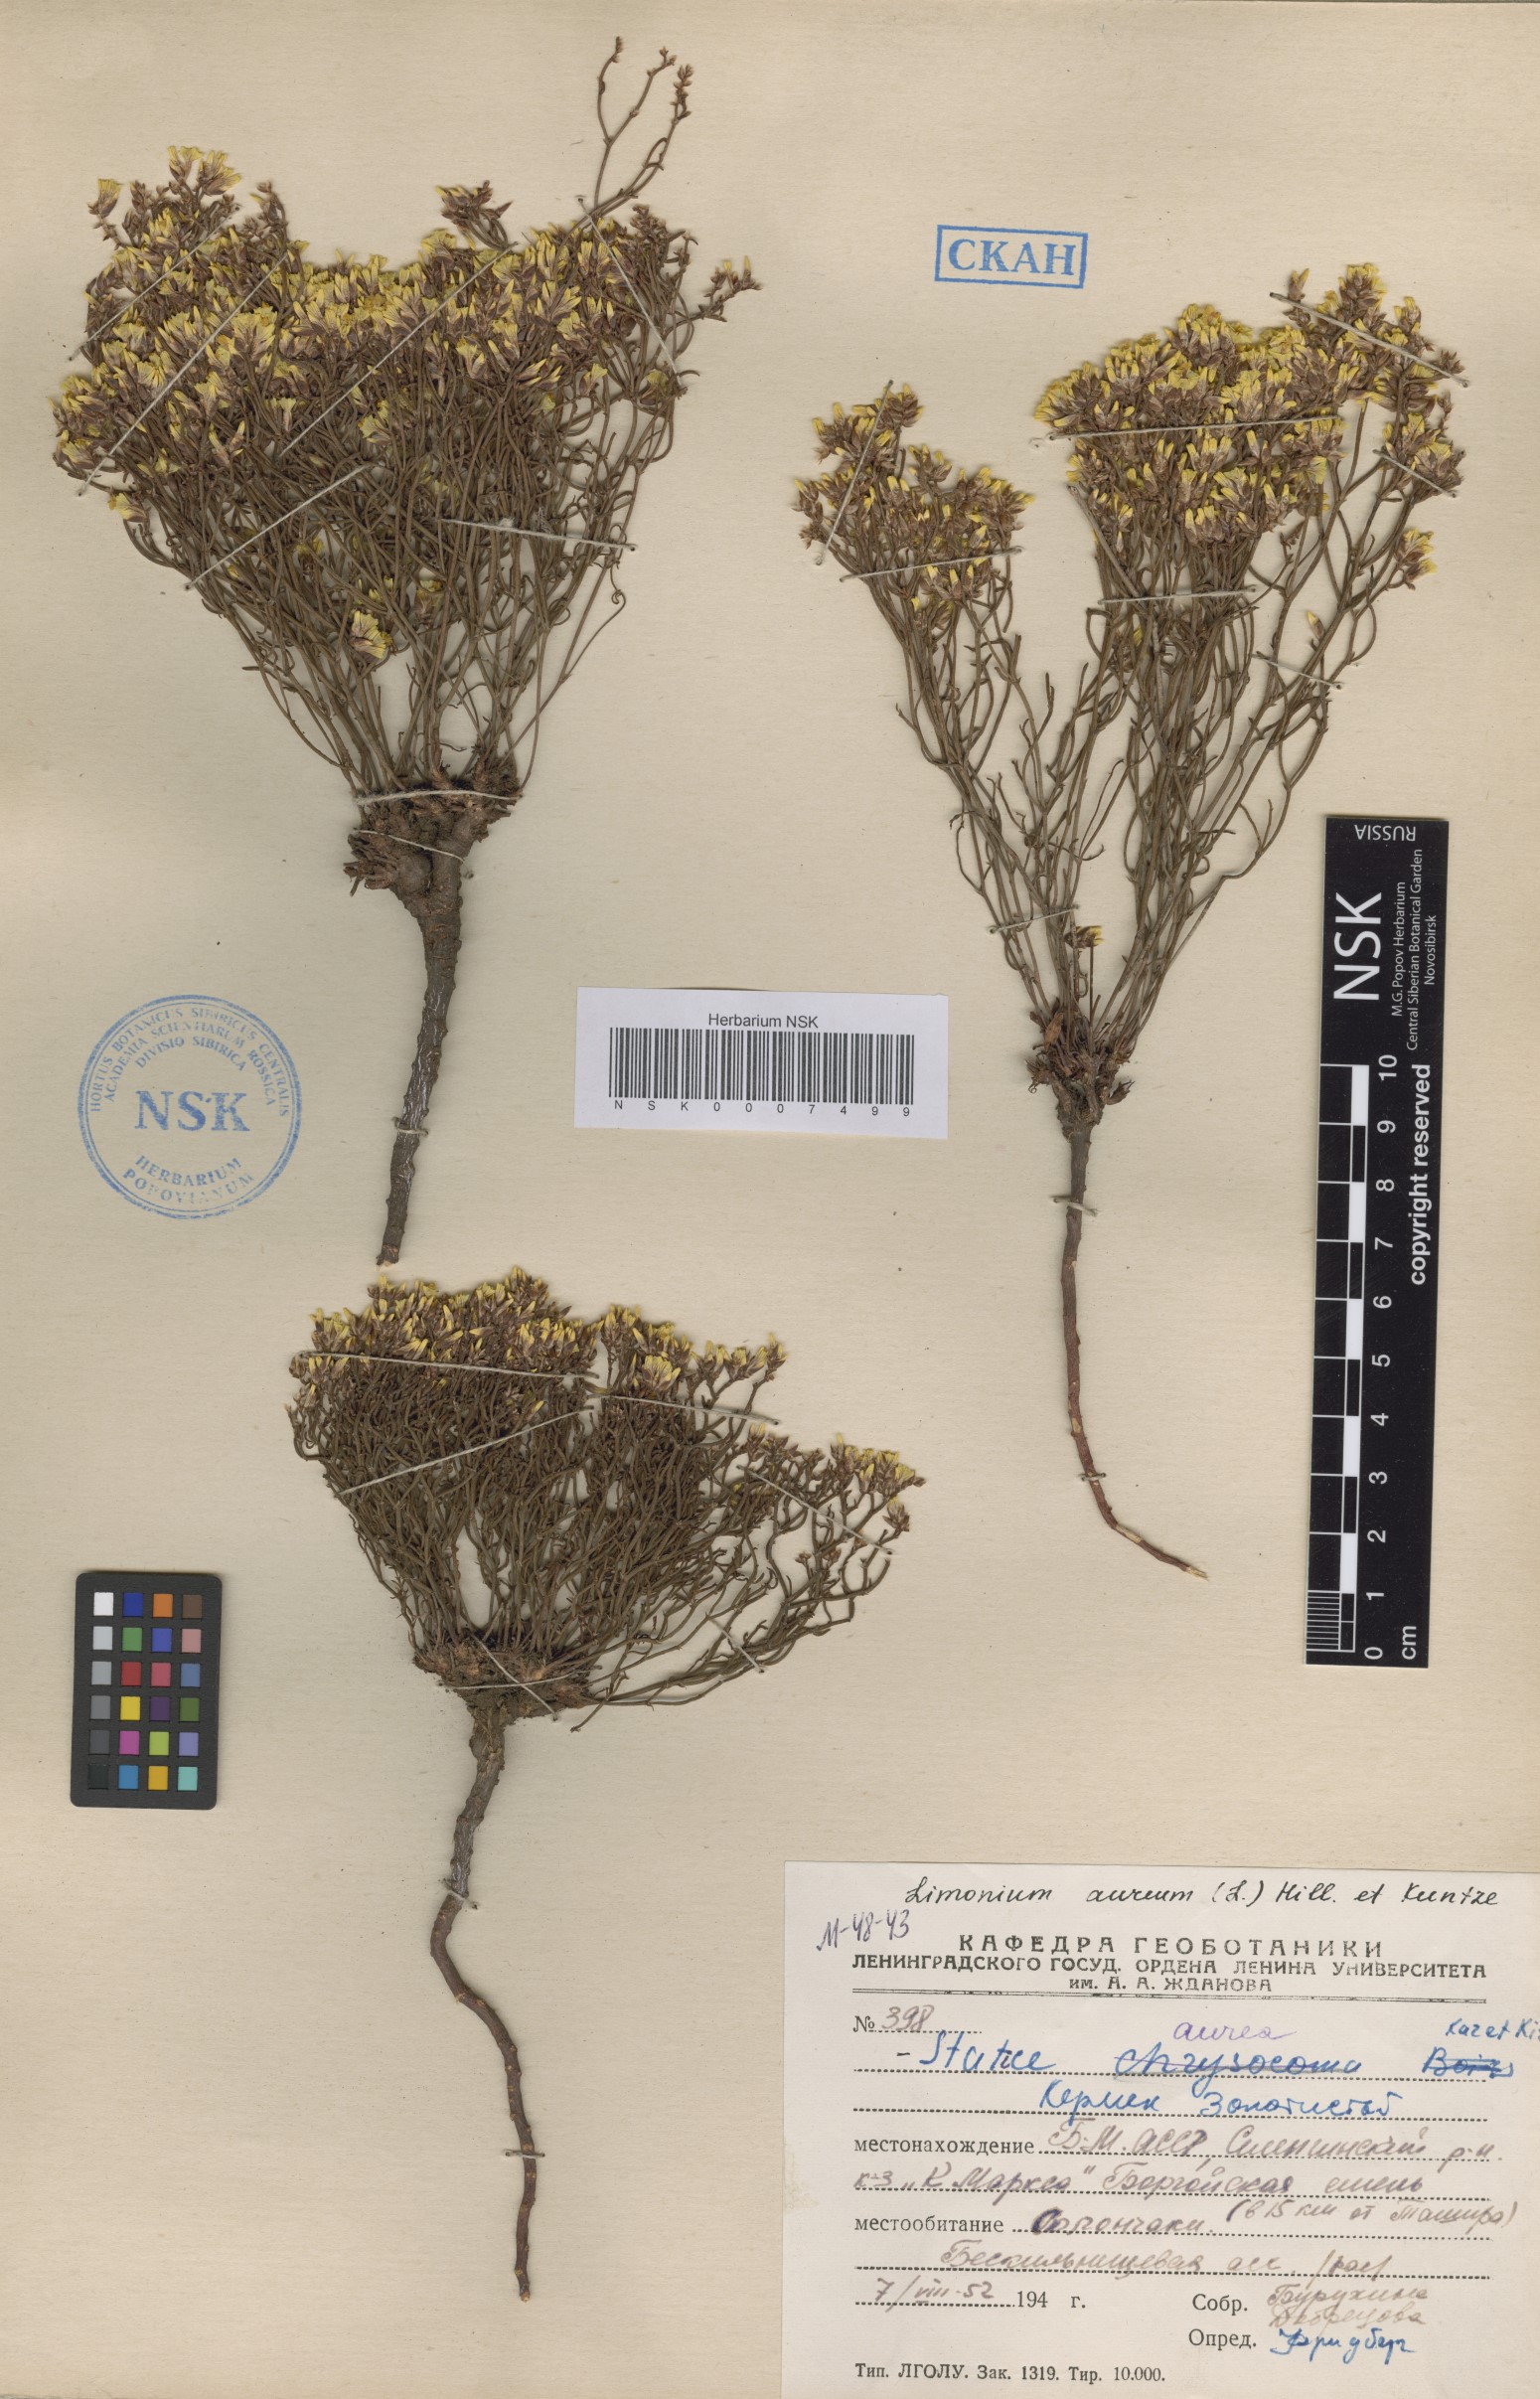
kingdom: Plantae
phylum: Tracheophyta
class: Magnoliopsida
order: Caryophyllales
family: Plumbaginaceae
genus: Limonium
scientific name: Limonium aureum
